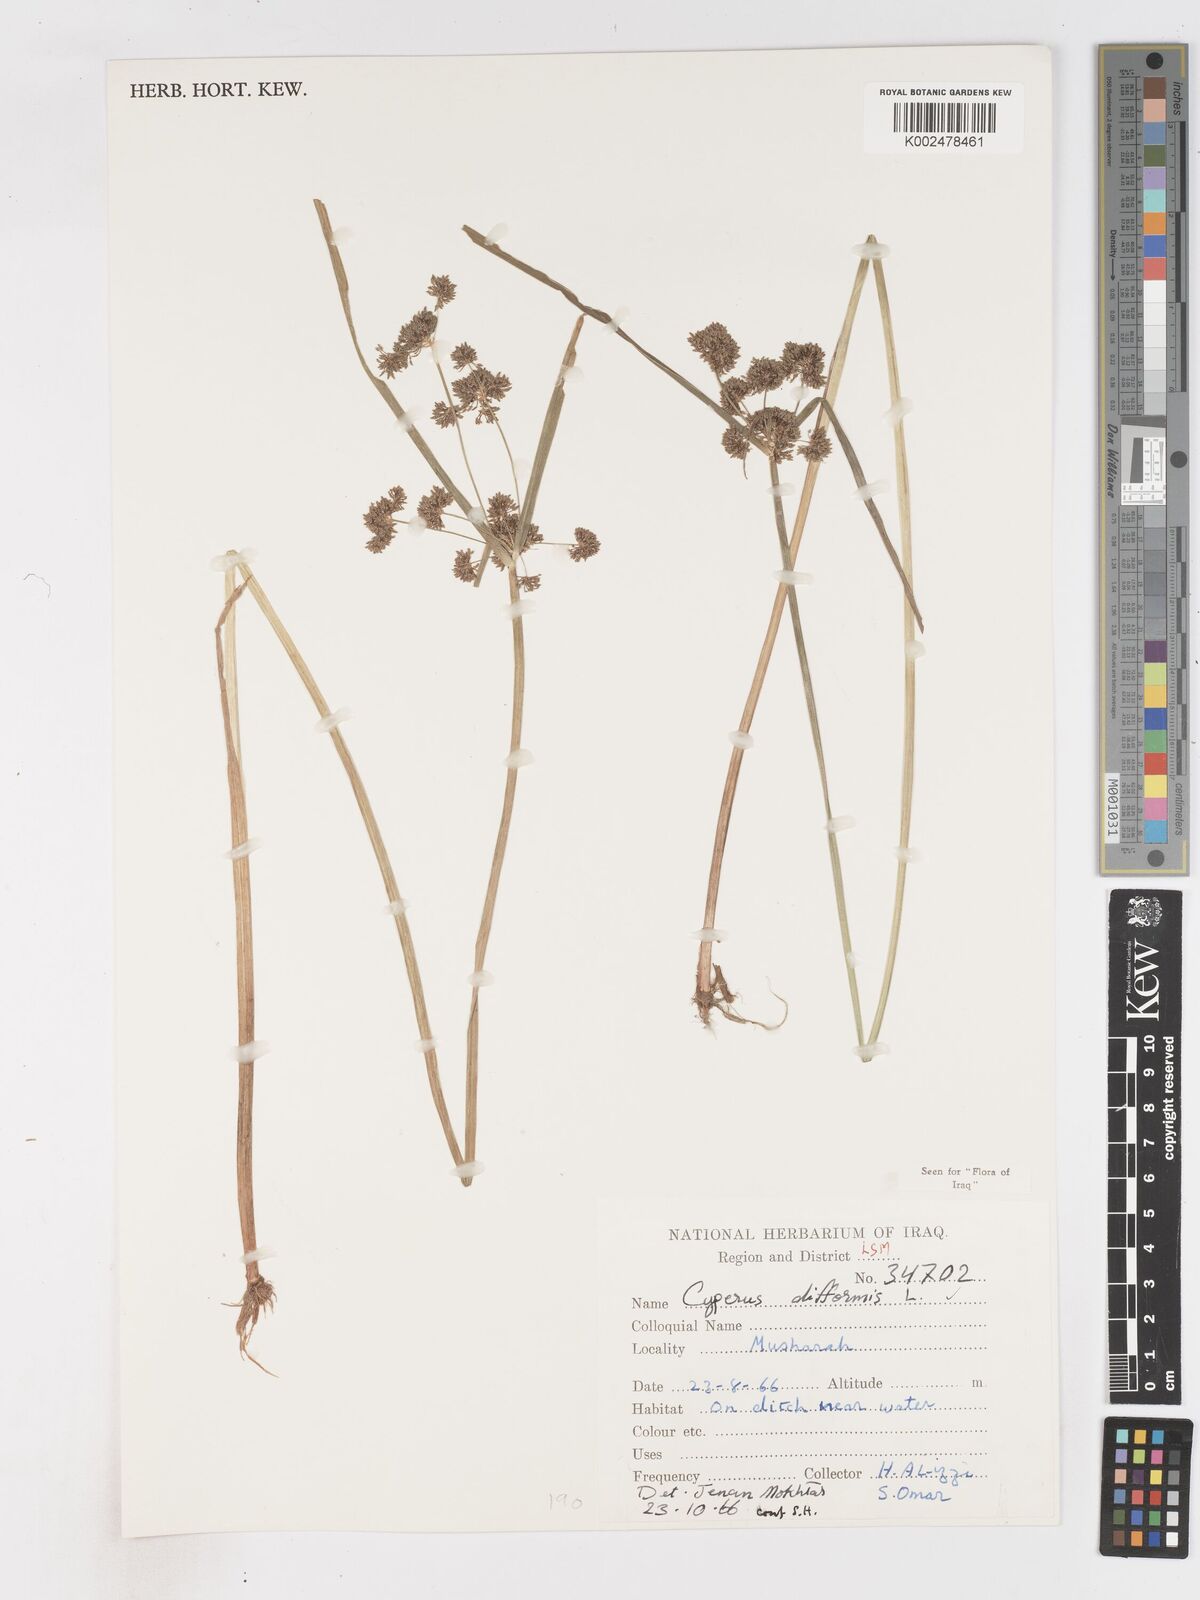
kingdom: Plantae
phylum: Tracheophyta
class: Liliopsida
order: Poales
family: Cyperaceae
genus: Cyperus
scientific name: Cyperus difformis
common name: Variable flatsedge
